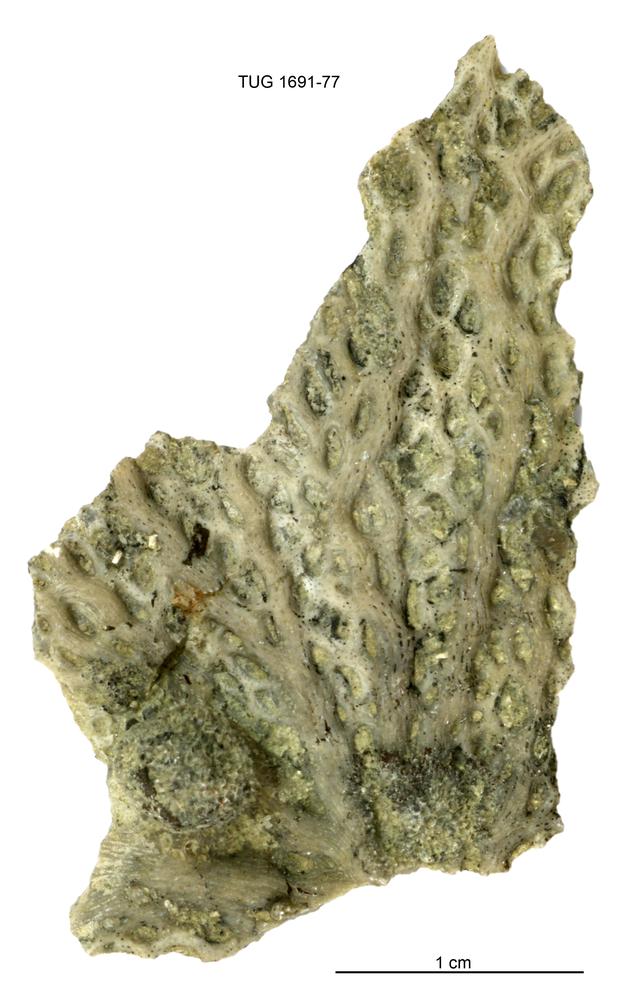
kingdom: Animalia
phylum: Bryozoa
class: Stenolaemata
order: Fenestrida
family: Phylloporinidae
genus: Aluverina
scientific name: Aluverina multiporata
